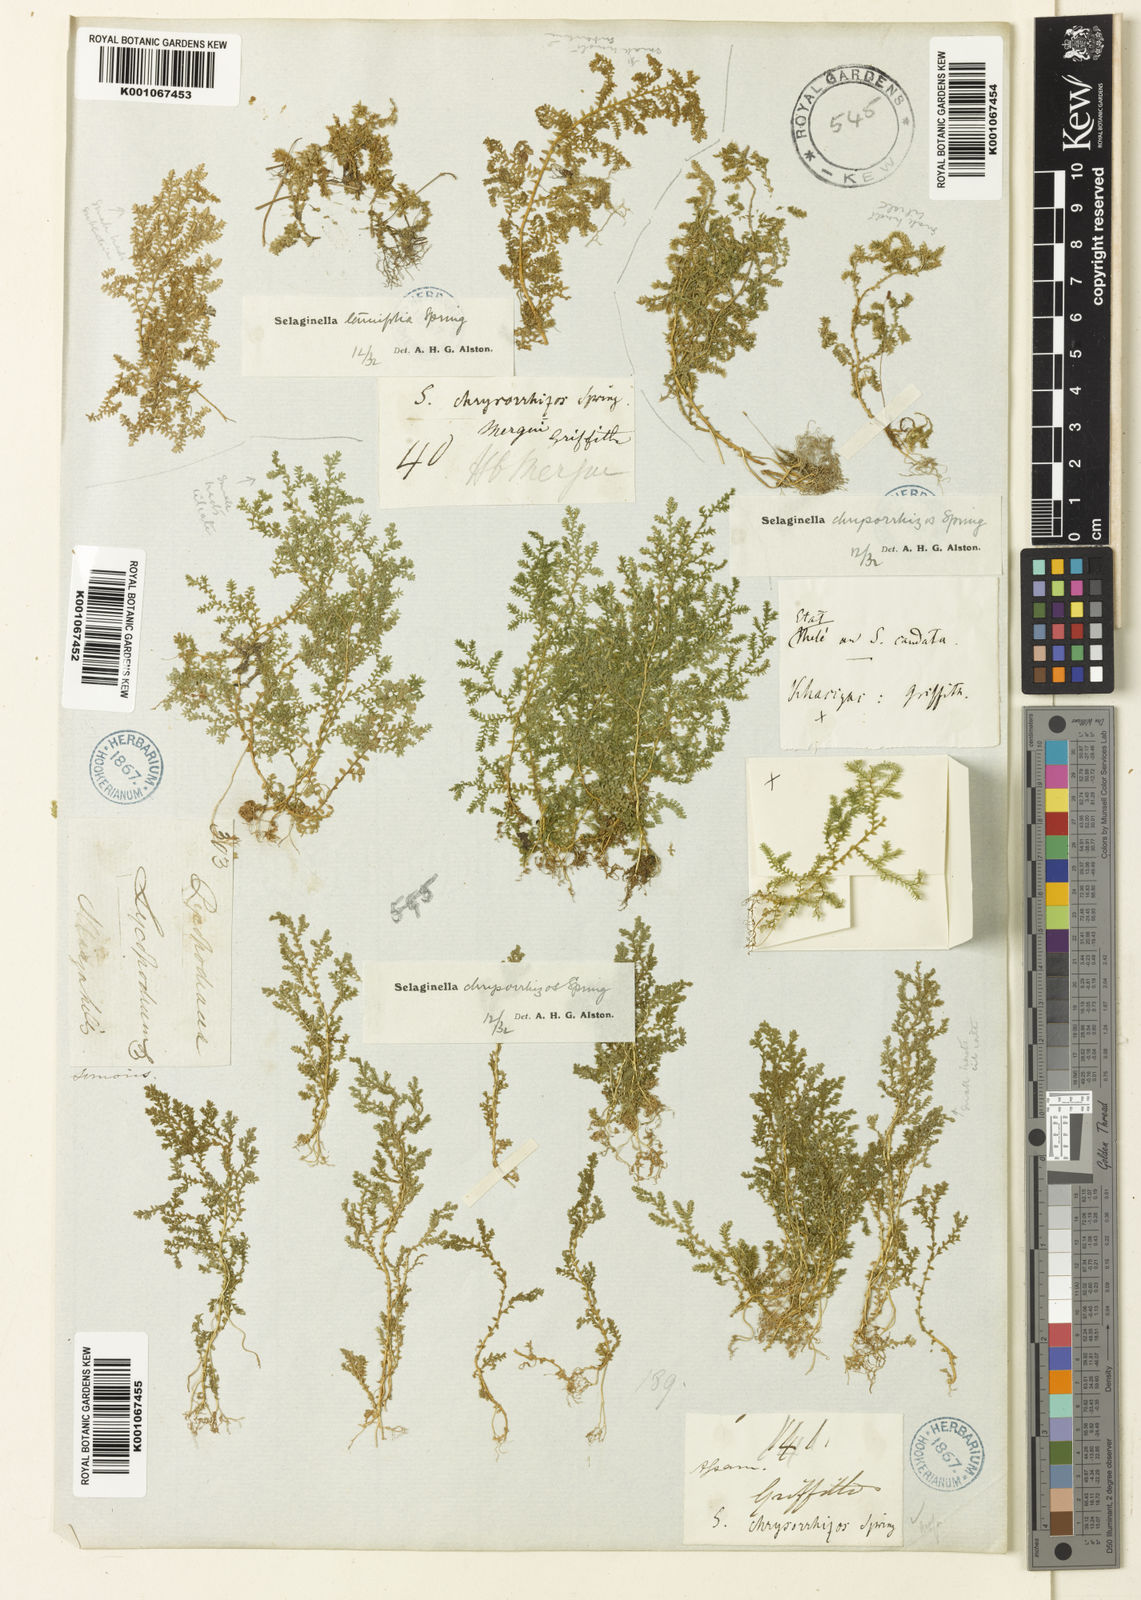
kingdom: Plantae
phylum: Tracheophyta
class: Lycopodiopsida
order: Selaginellales
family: Selaginellaceae
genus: Selaginella
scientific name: Selaginella chrysorrhizos
